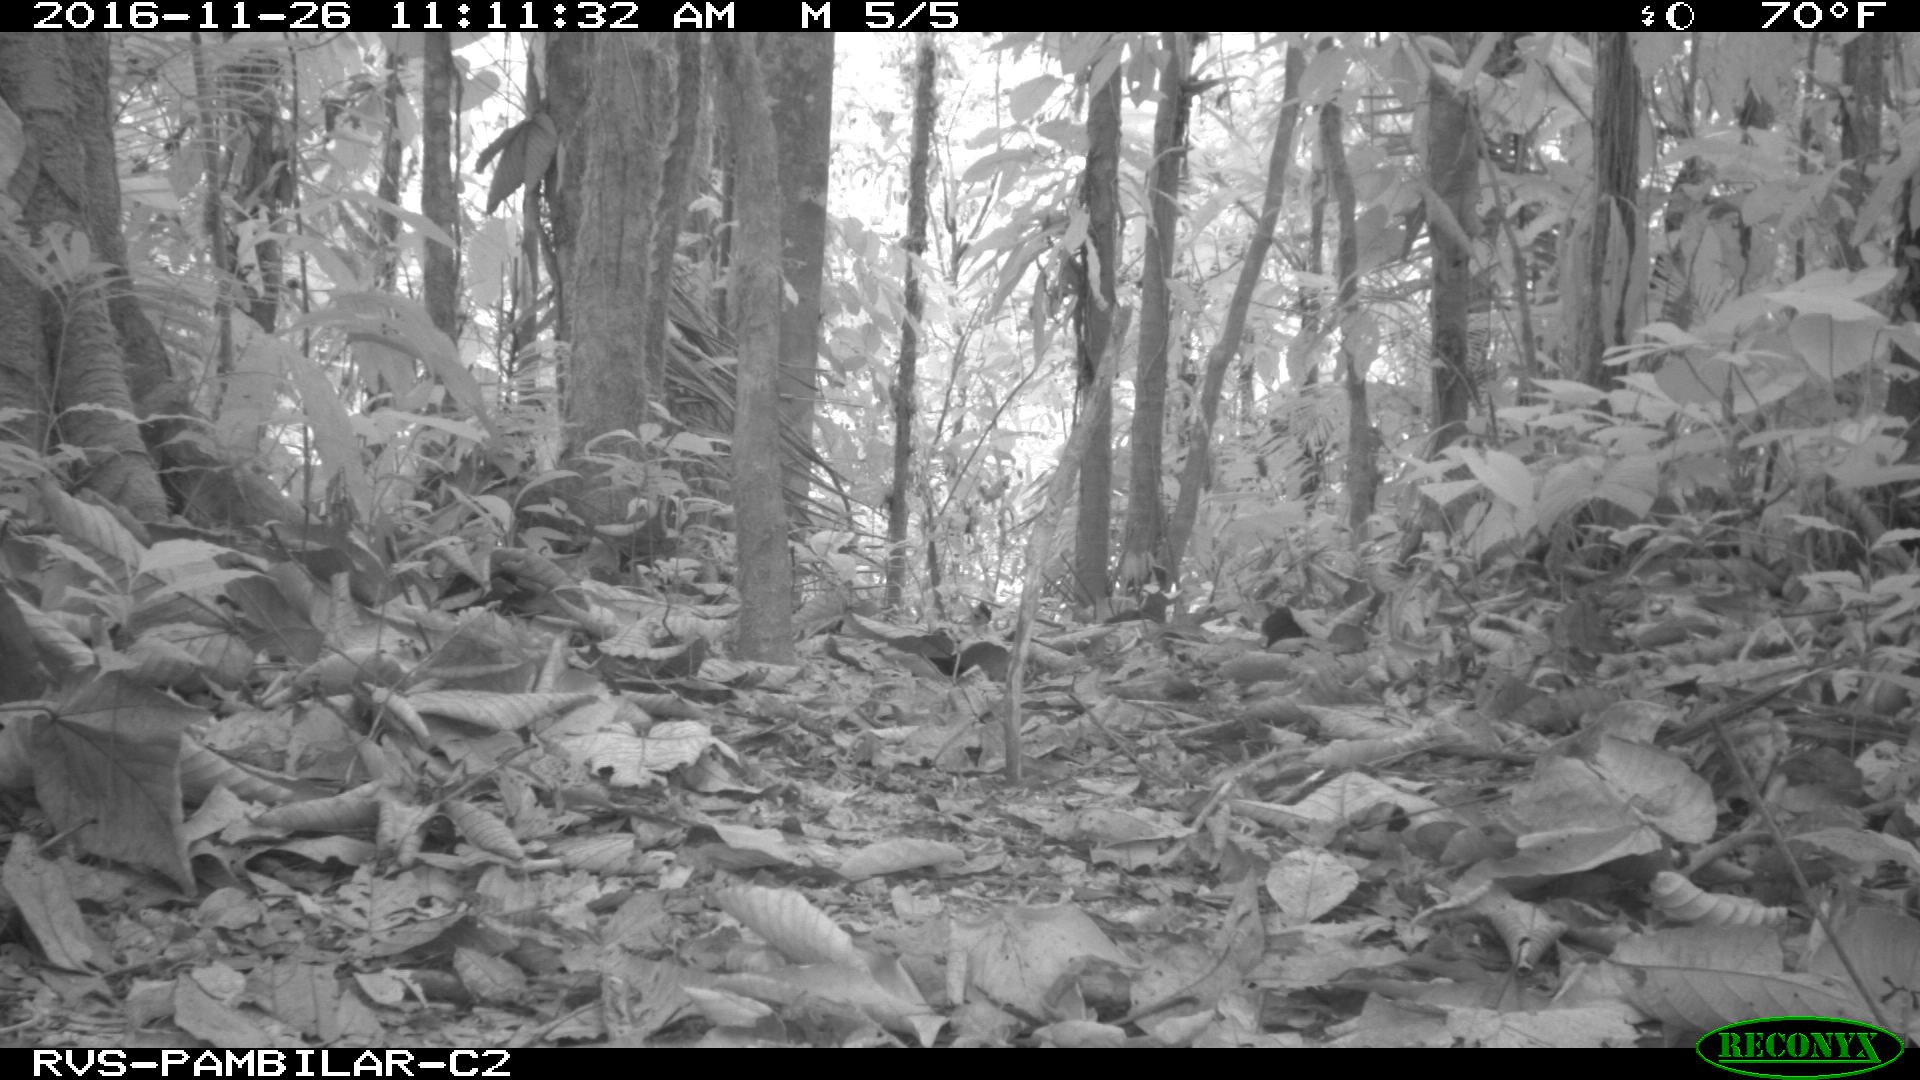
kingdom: Animalia
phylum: Chordata
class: Aves
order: Accipitriformes
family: Accipitridae
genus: Buteogallus
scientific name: Buteogallus urubitinga
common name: Great black hawk
